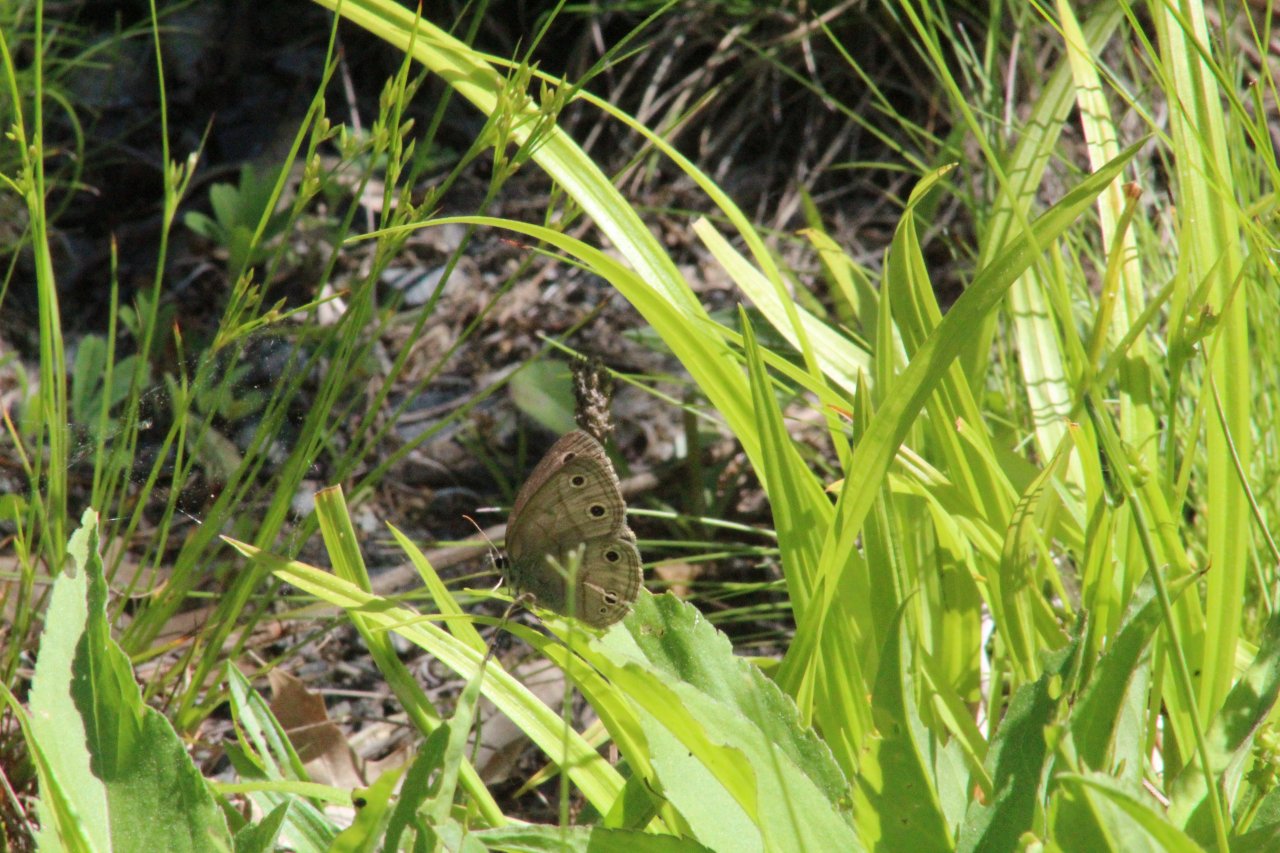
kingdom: Animalia
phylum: Arthropoda
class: Insecta
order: Lepidoptera
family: Nymphalidae
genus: Euptychia
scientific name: Euptychia cymela
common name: Little Wood Satyr
